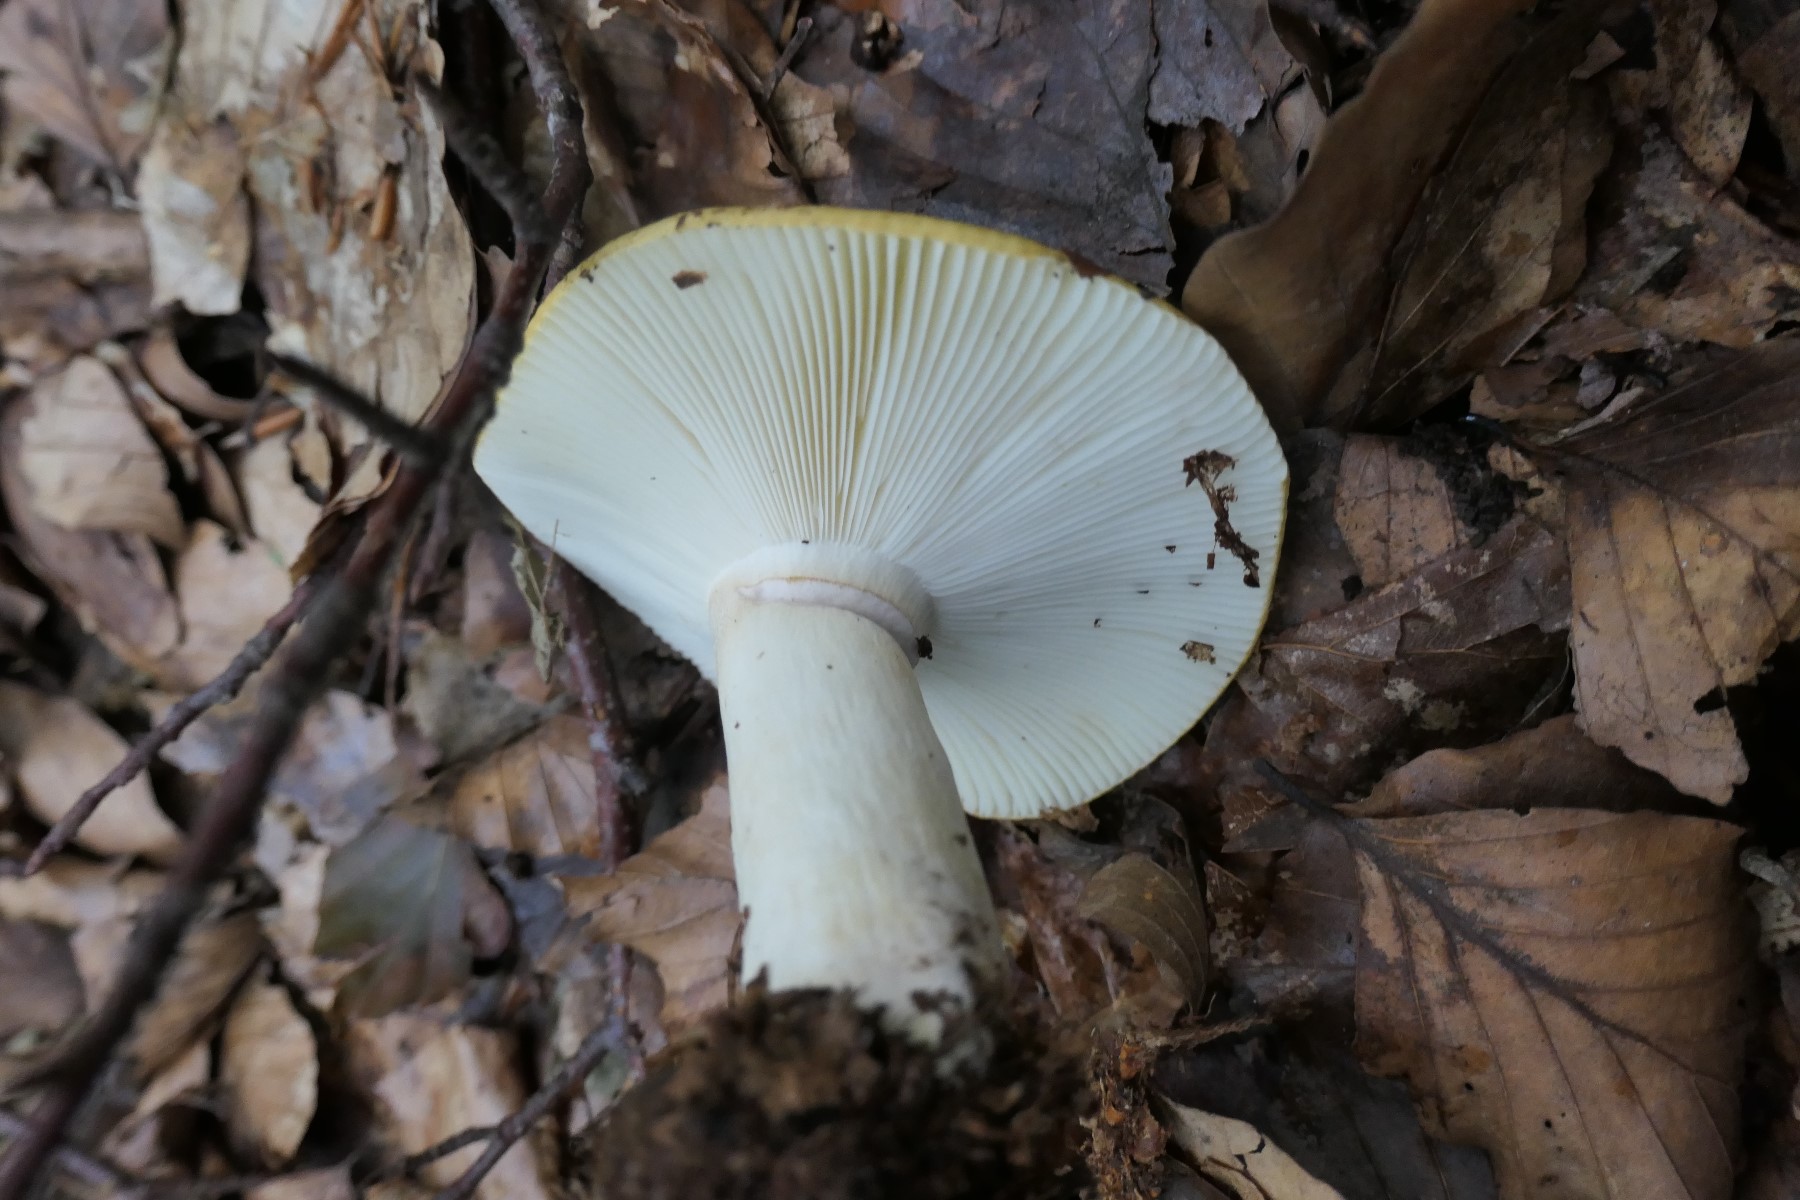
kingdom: Fungi
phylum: Basidiomycota
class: Agaricomycetes
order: Russulales
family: Russulaceae
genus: Russula
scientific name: Russula ochroleuca
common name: okkergul skørhat
